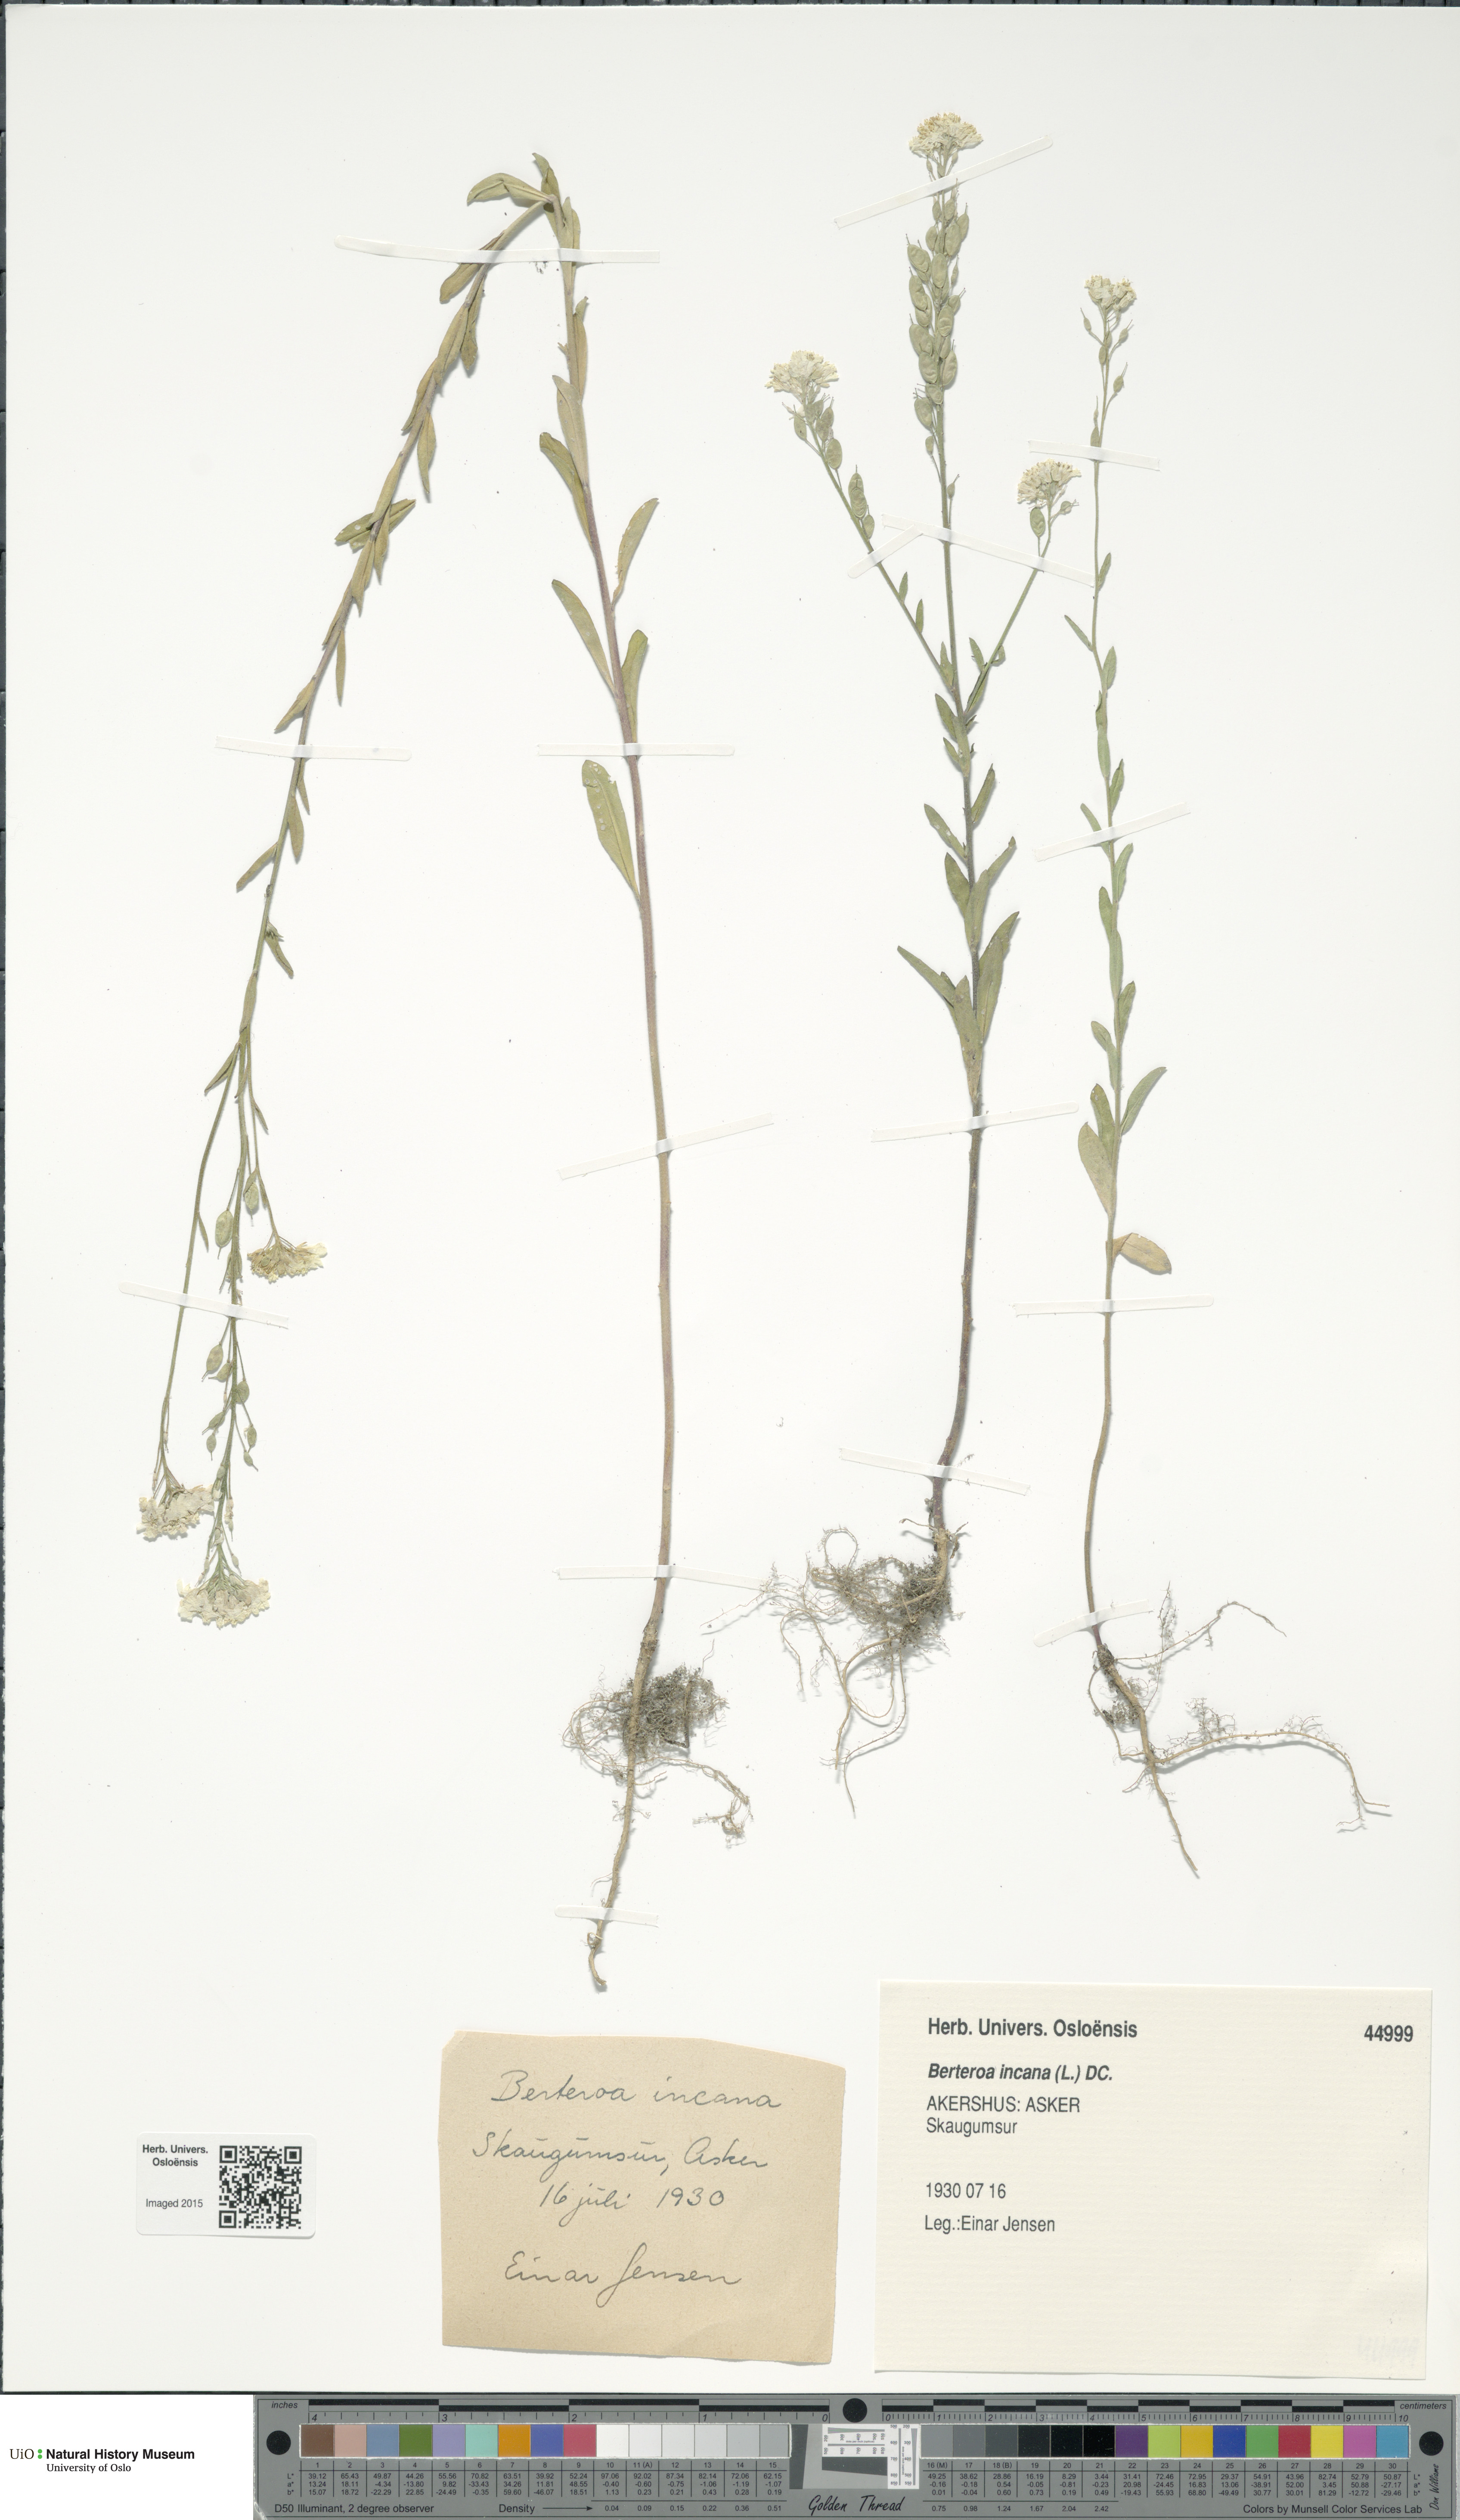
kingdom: Plantae
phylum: Tracheophyta
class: Magnoliopsida
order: Brassicales
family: Brassicaceae
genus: Berteroa
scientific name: Berteroa incana
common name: Hoary alison
